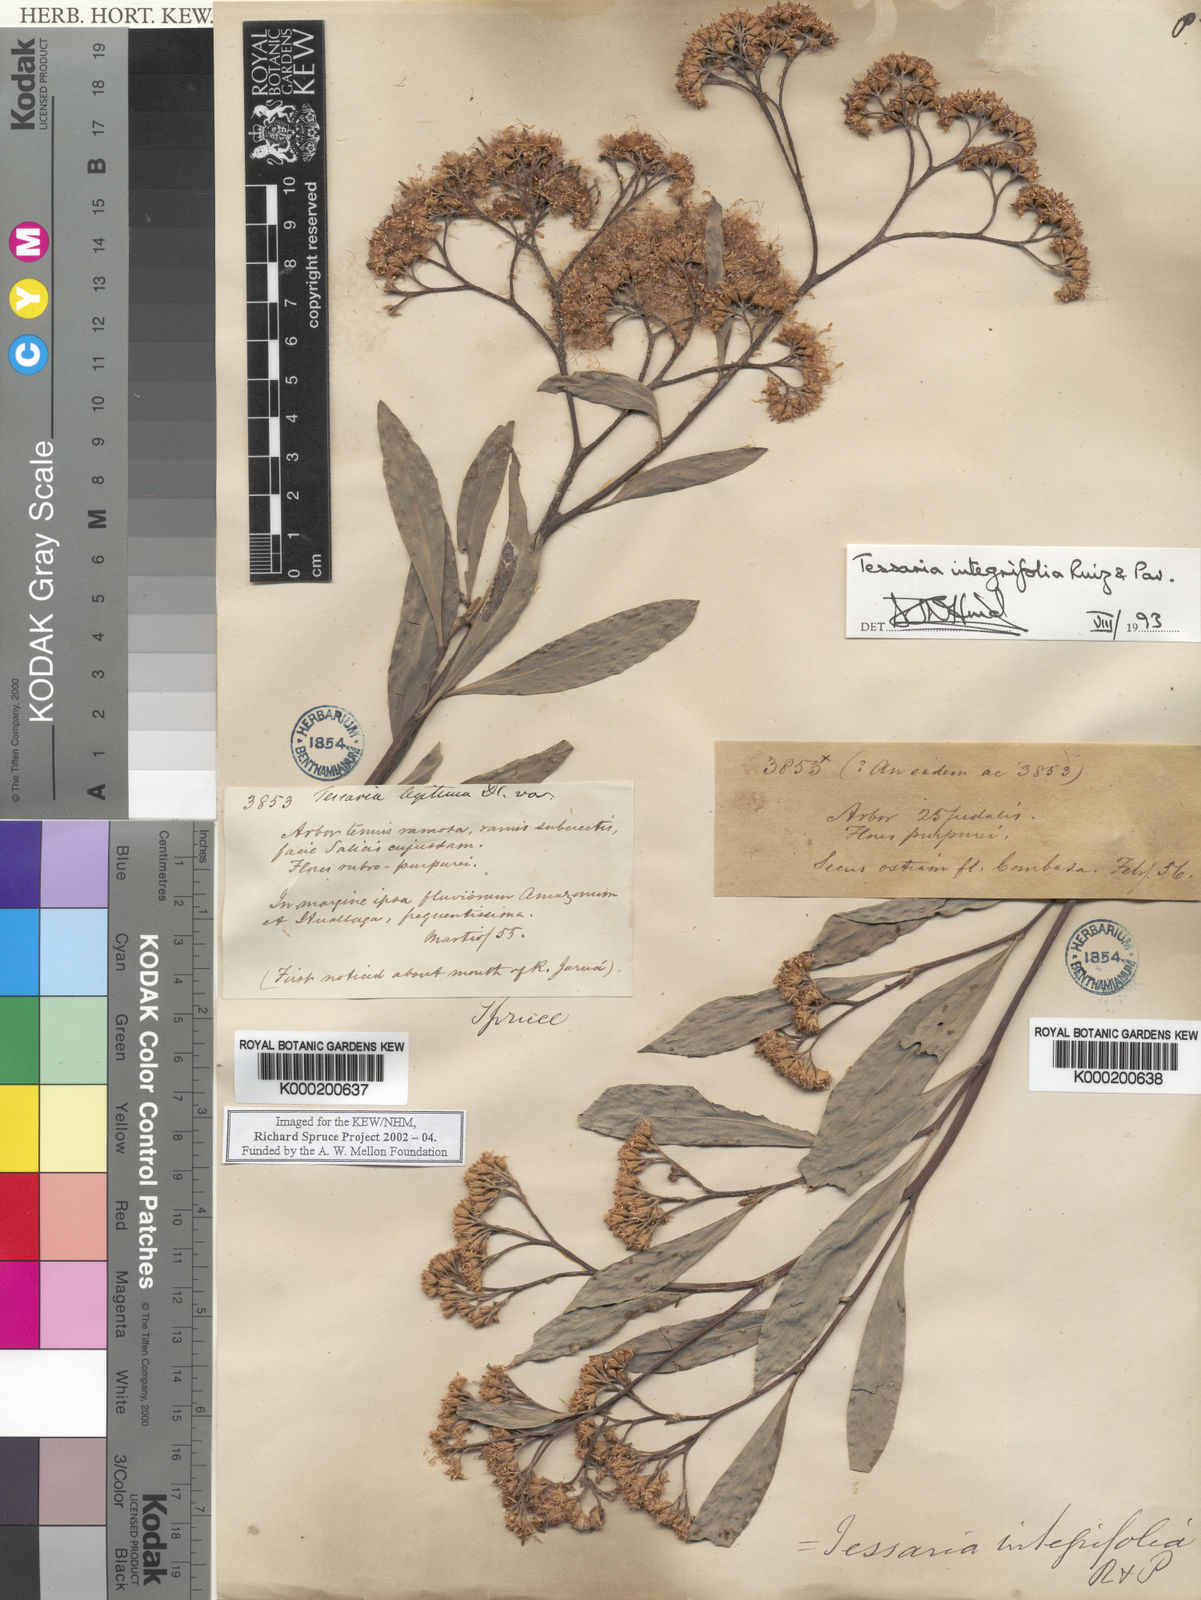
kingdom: Plantae
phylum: Tracheophyta
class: Magnoliopsida
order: Asterales
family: Asteraceae
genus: Tessaria
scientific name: Tessaria integrifolia
